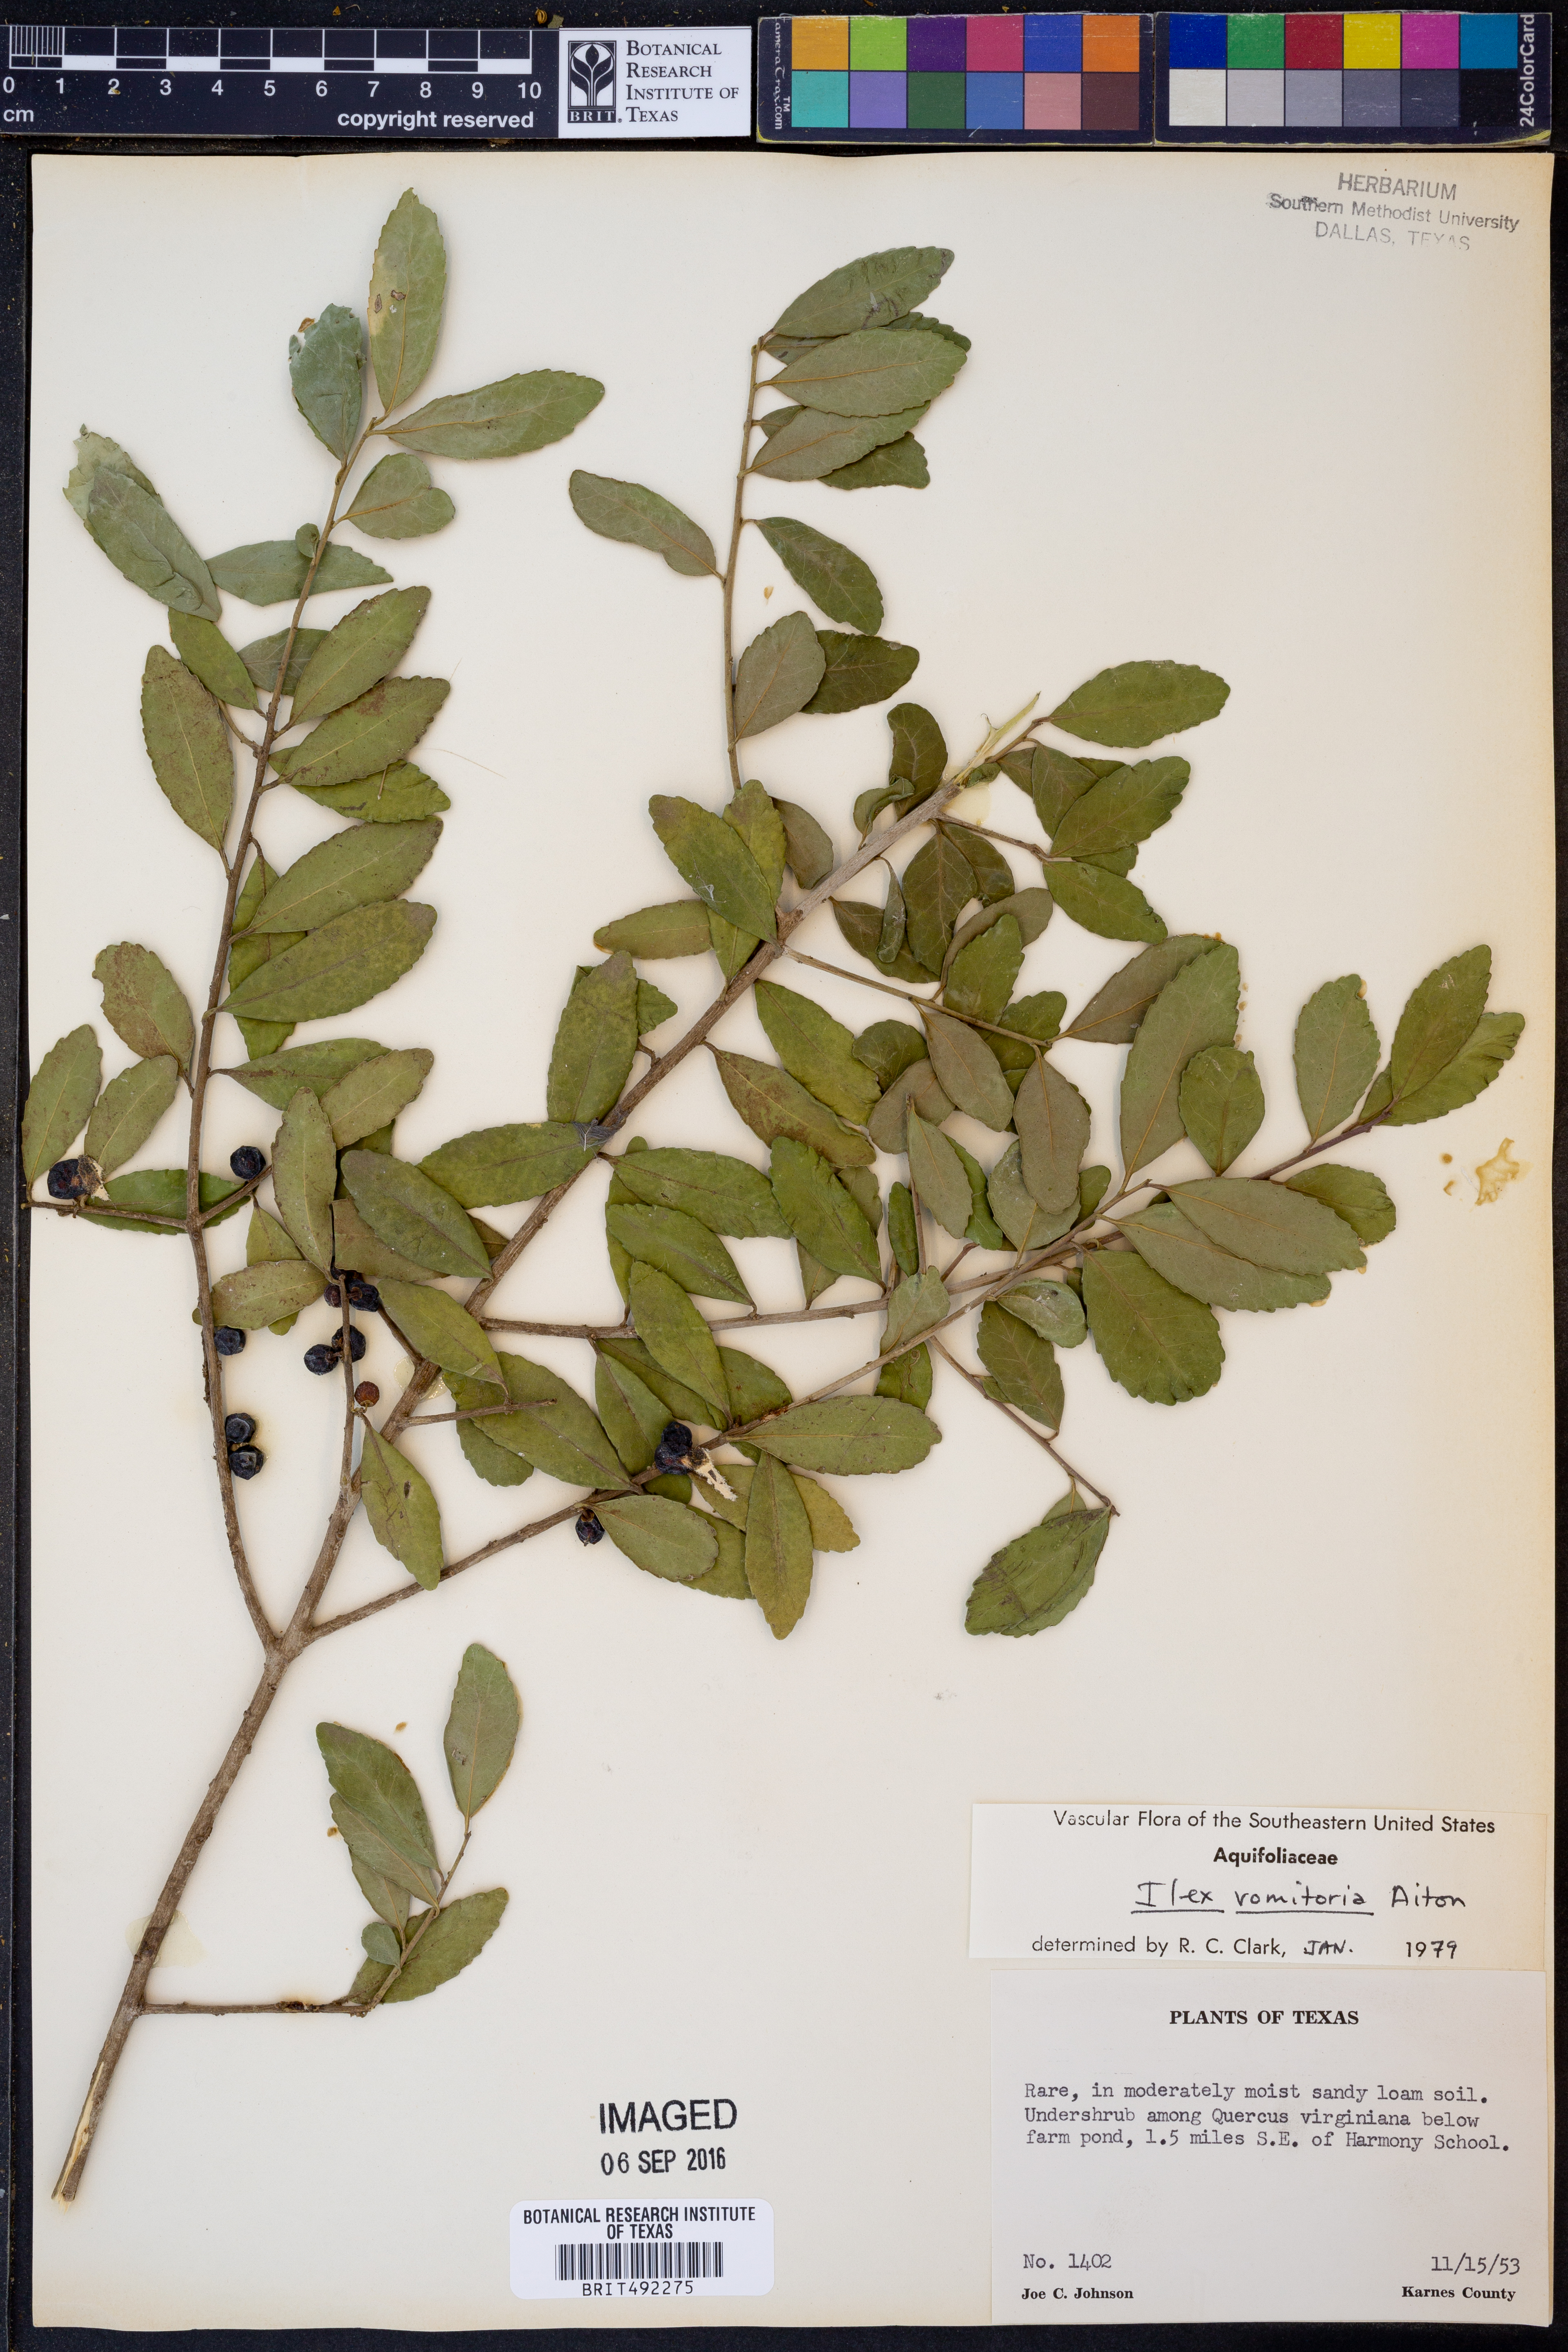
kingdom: Plantae
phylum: Tracheophyta
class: Magnoliopsida
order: Aquifoliales
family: Aquifoliaceae
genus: Ilex
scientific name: Ilex vomitoria
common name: Yaupon holly
